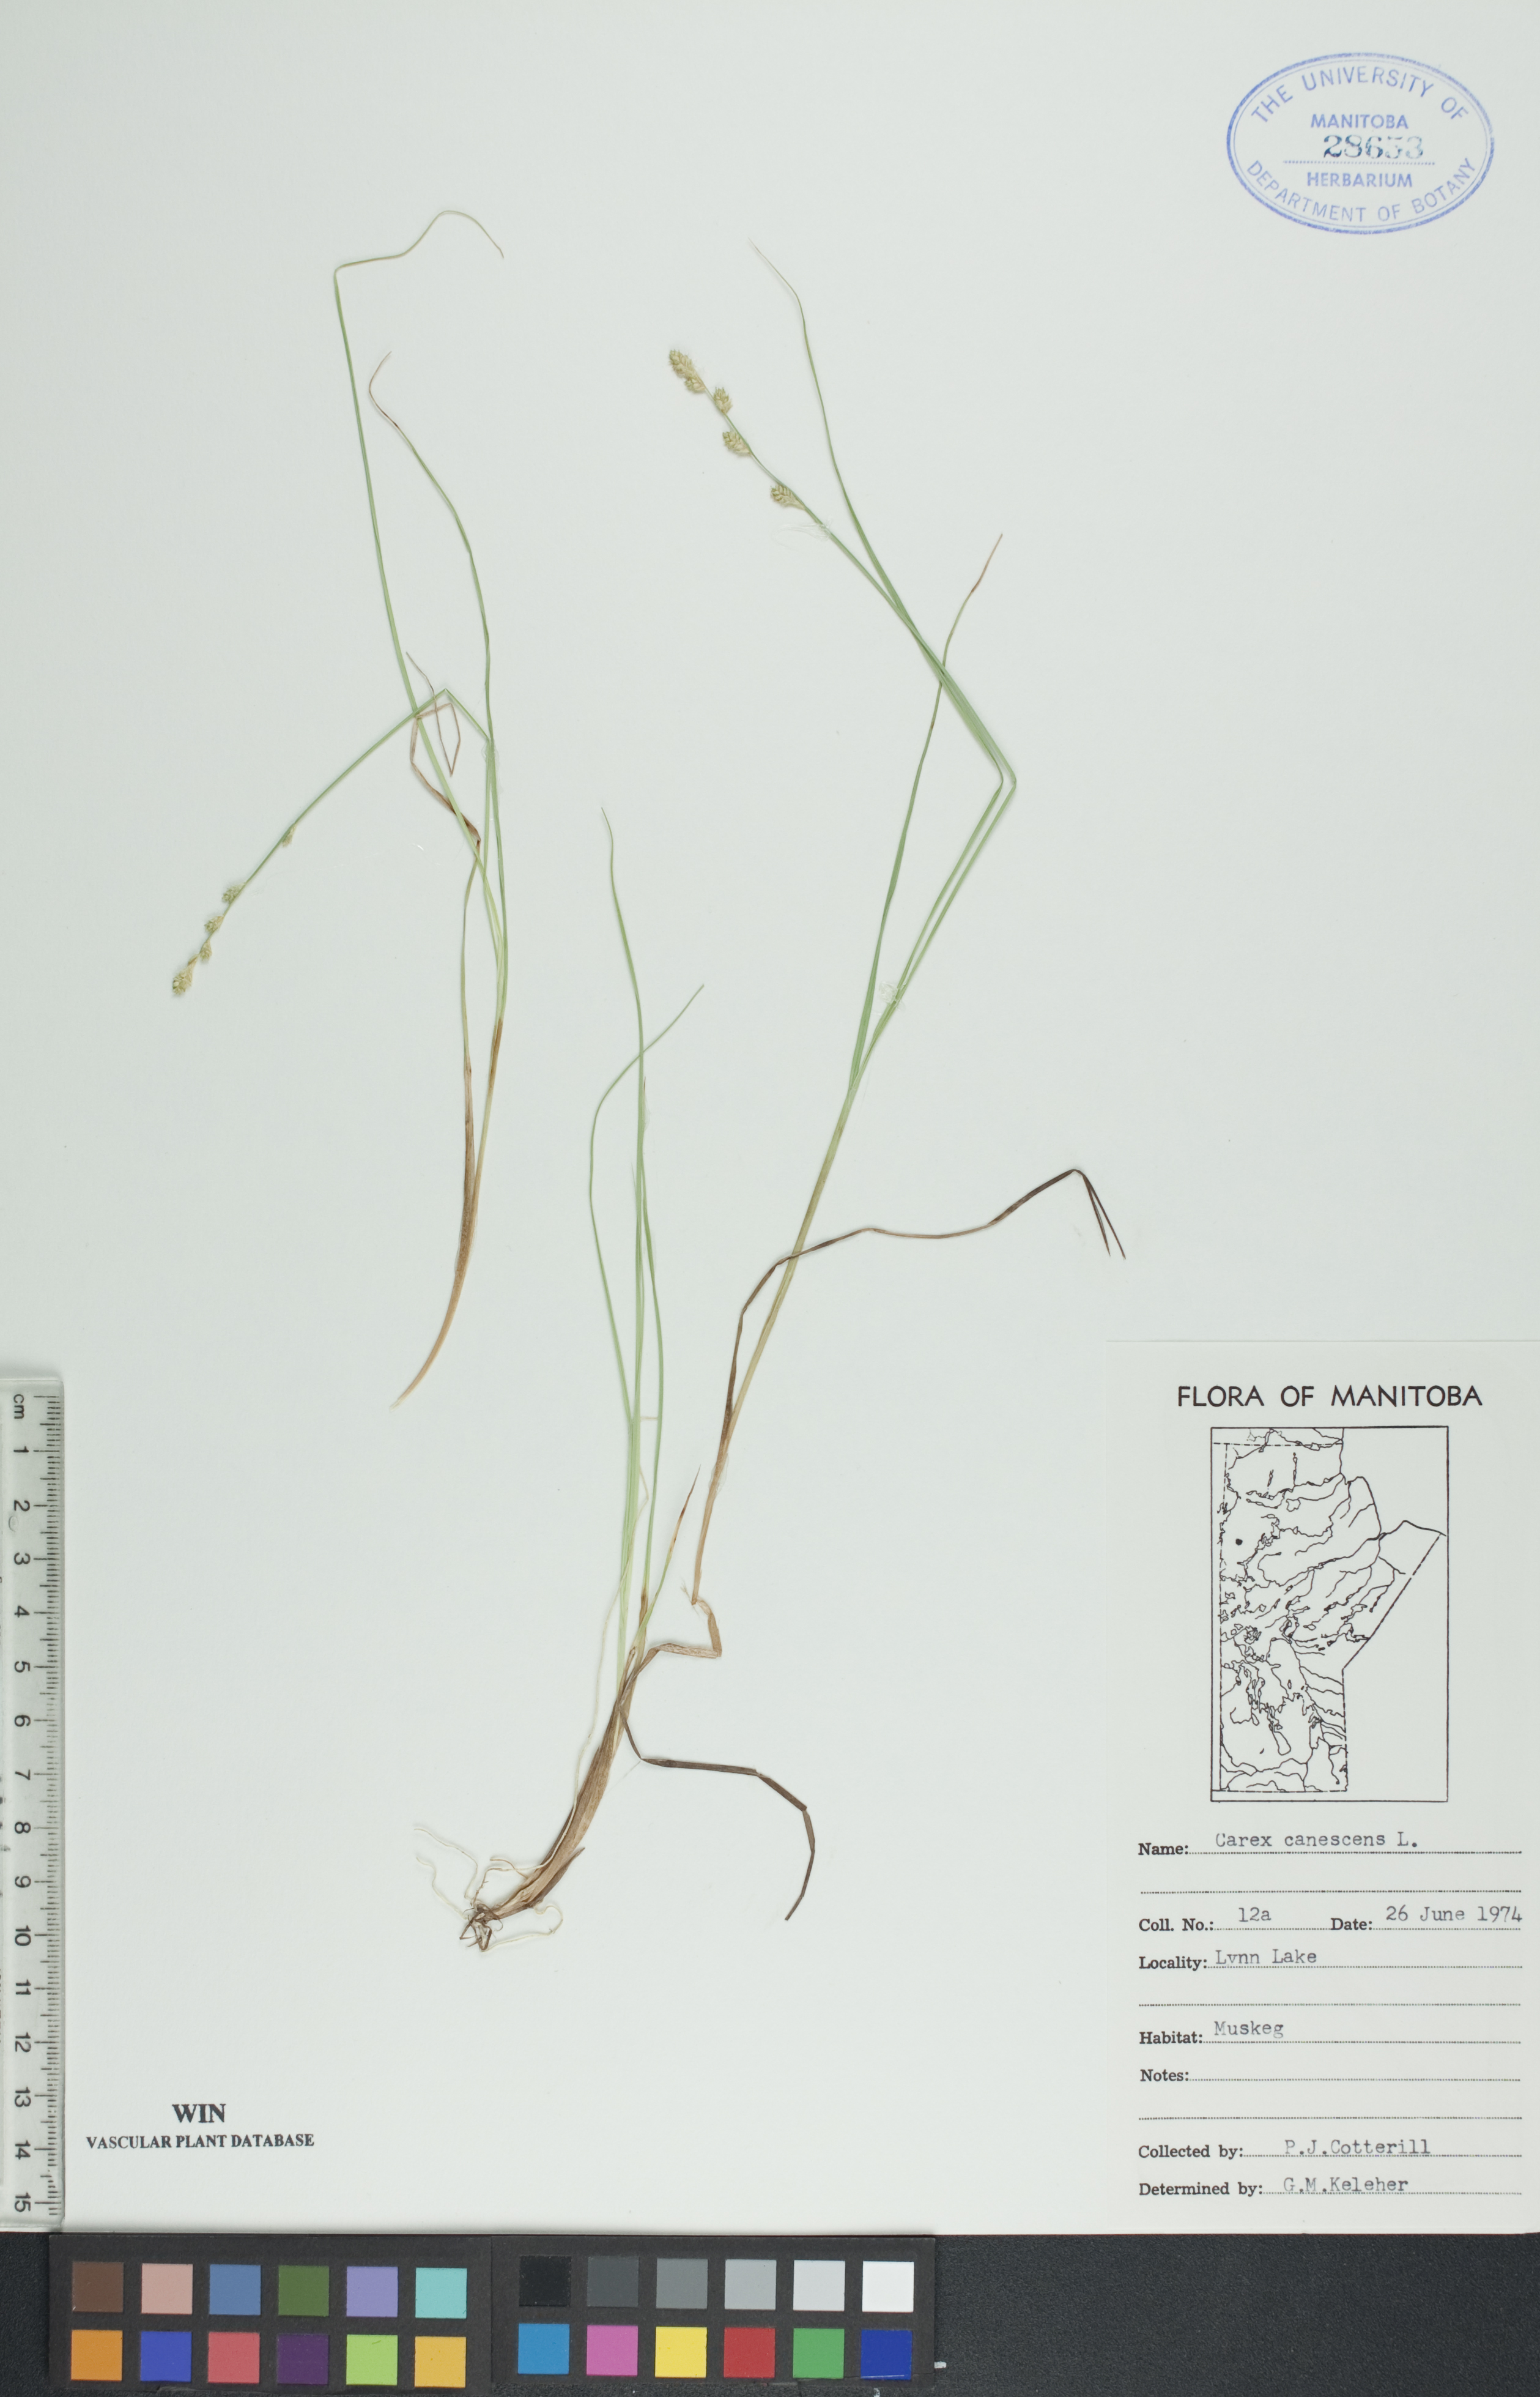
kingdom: Plantae
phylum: Tracheophyta
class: Liliopsida
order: Poales
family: Cyperaceae
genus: Carex
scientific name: Carex canescens
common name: White sedge
